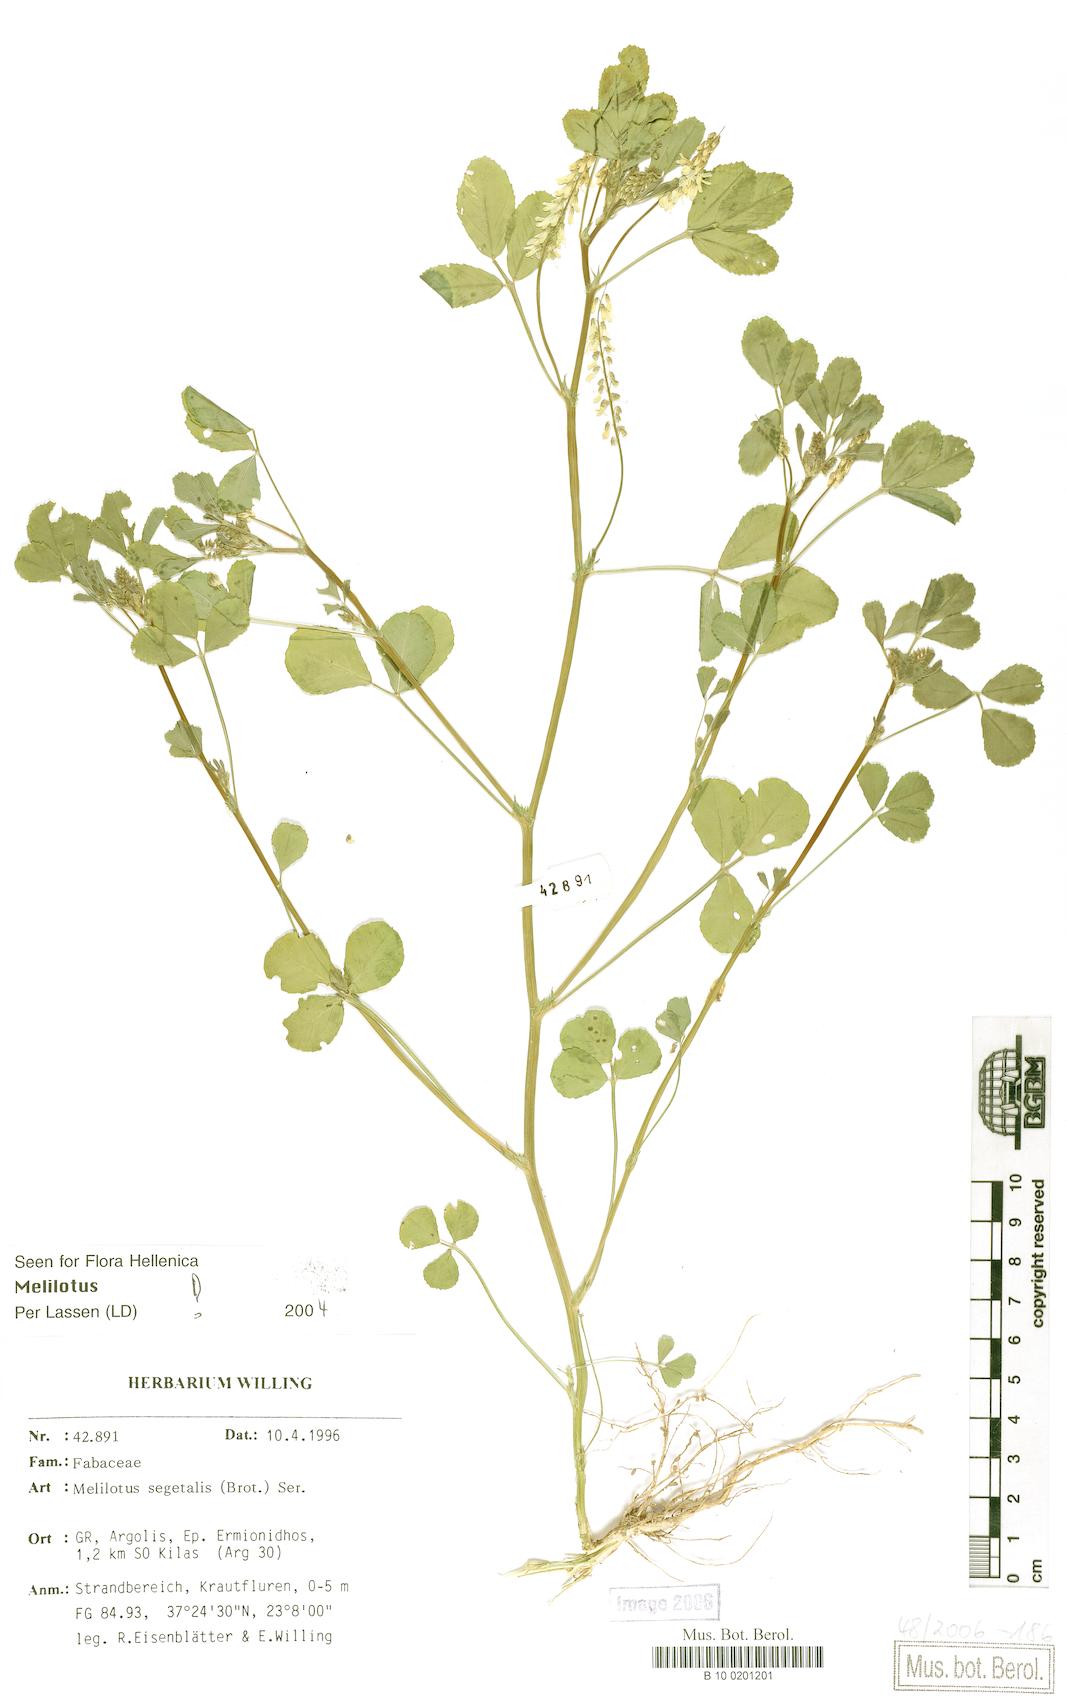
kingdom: Plantae
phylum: Tracheophyta
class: Magnoliopsida
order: Fabales
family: Fabaceae
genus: Melilotus
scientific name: Melilotus segetalis
